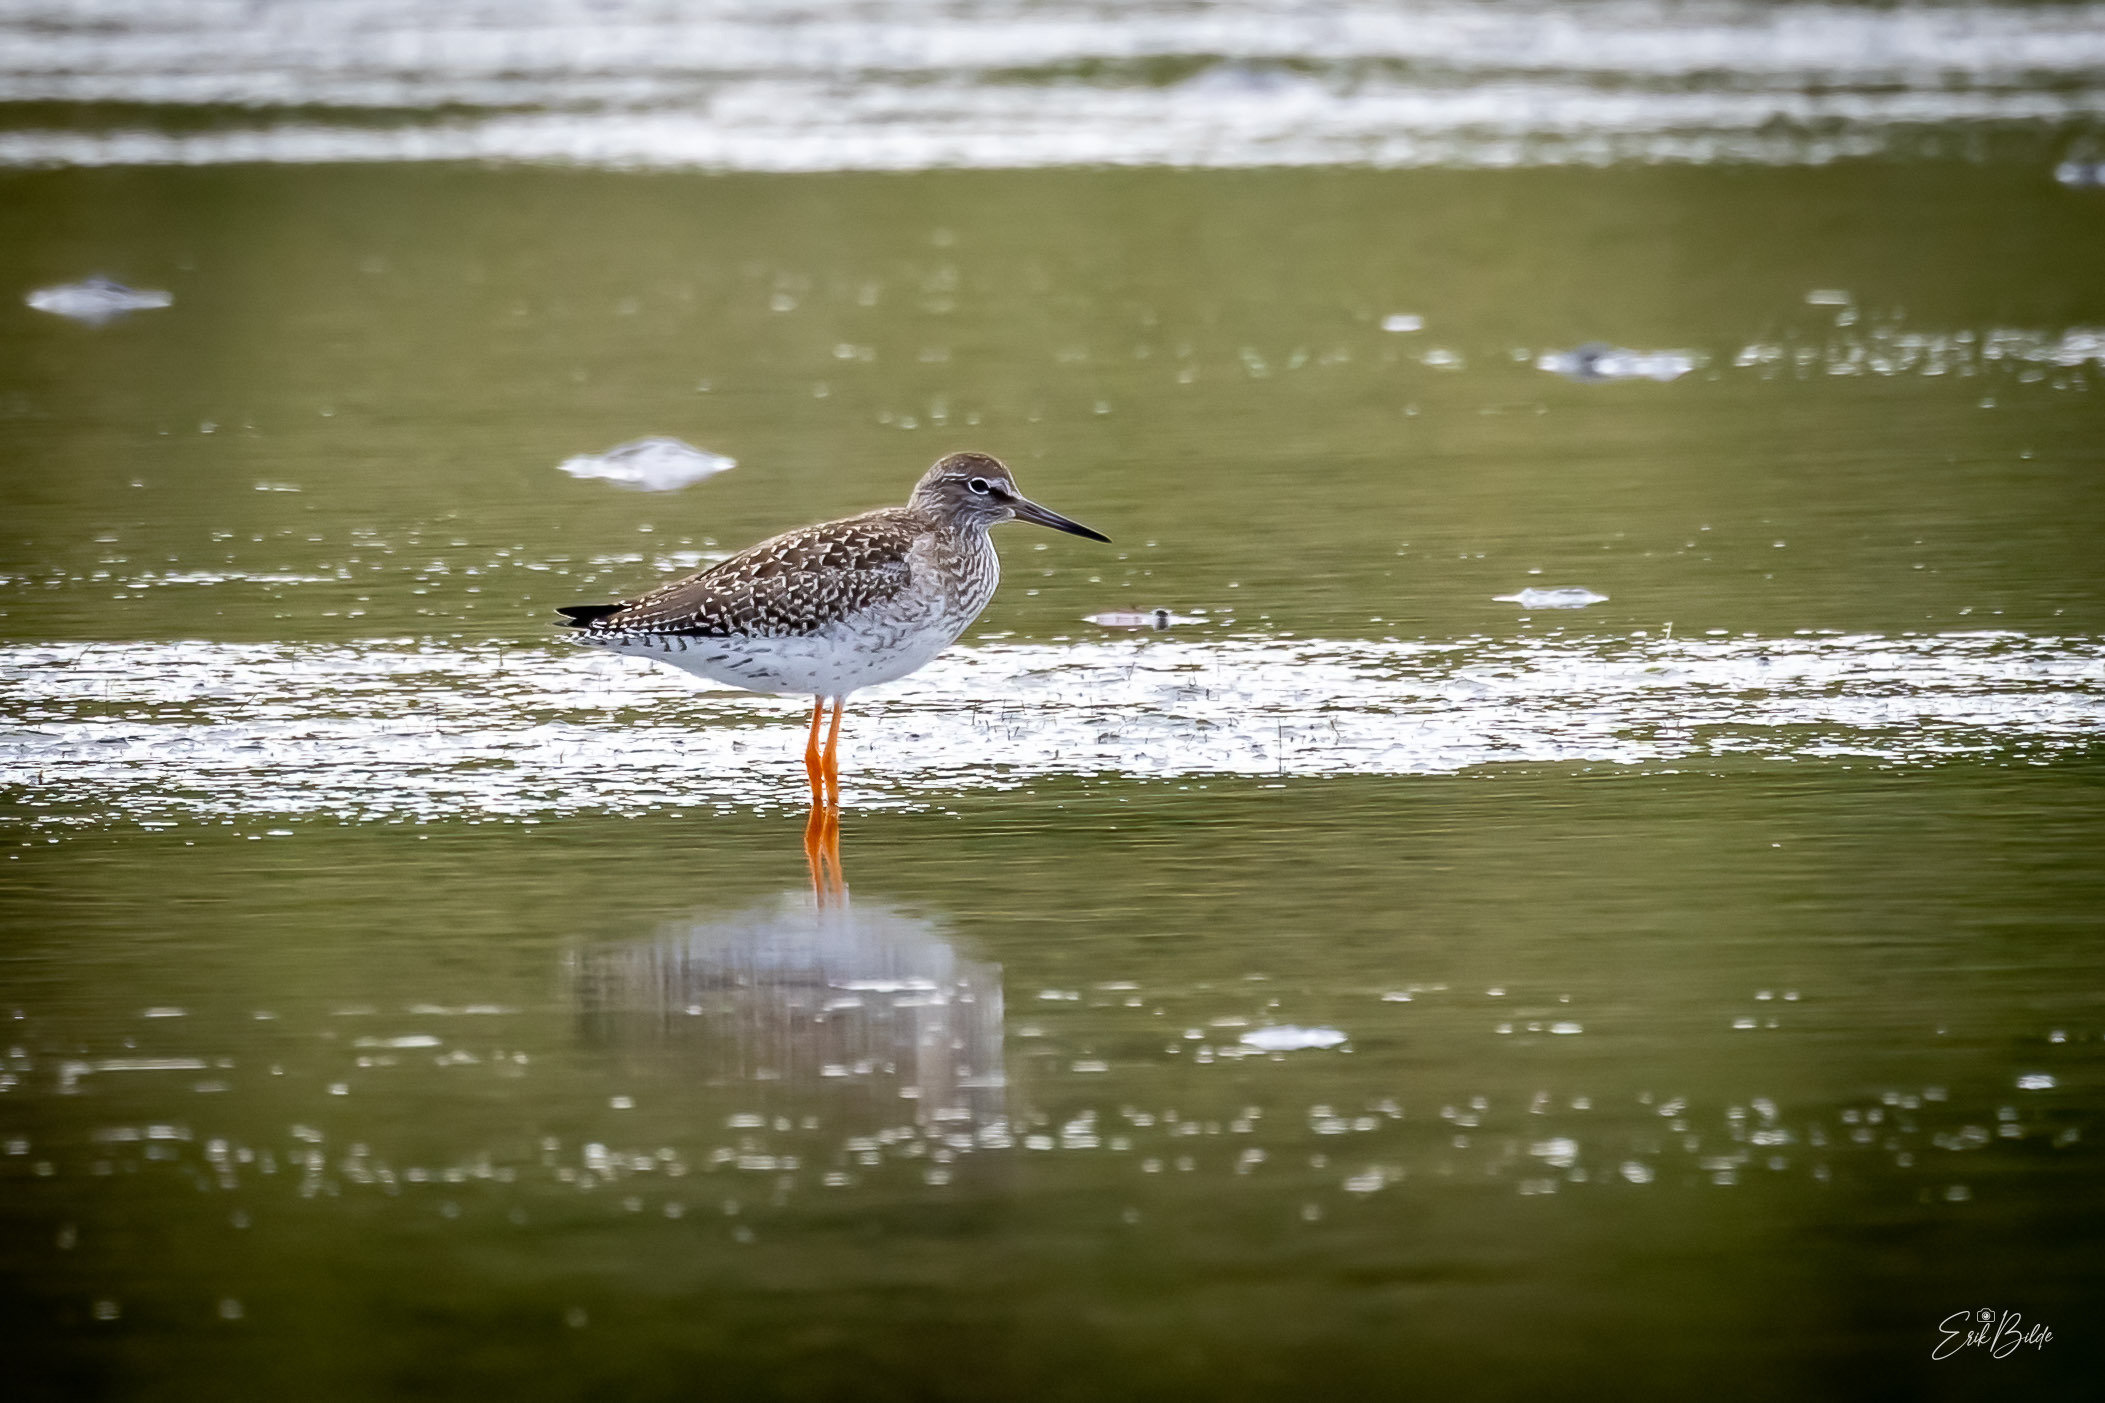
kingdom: Animalia
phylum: Chordata
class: Aves
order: Charadriiformes
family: Scolopacidae
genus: Tringa
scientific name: Tringa totanus
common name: Rødben
